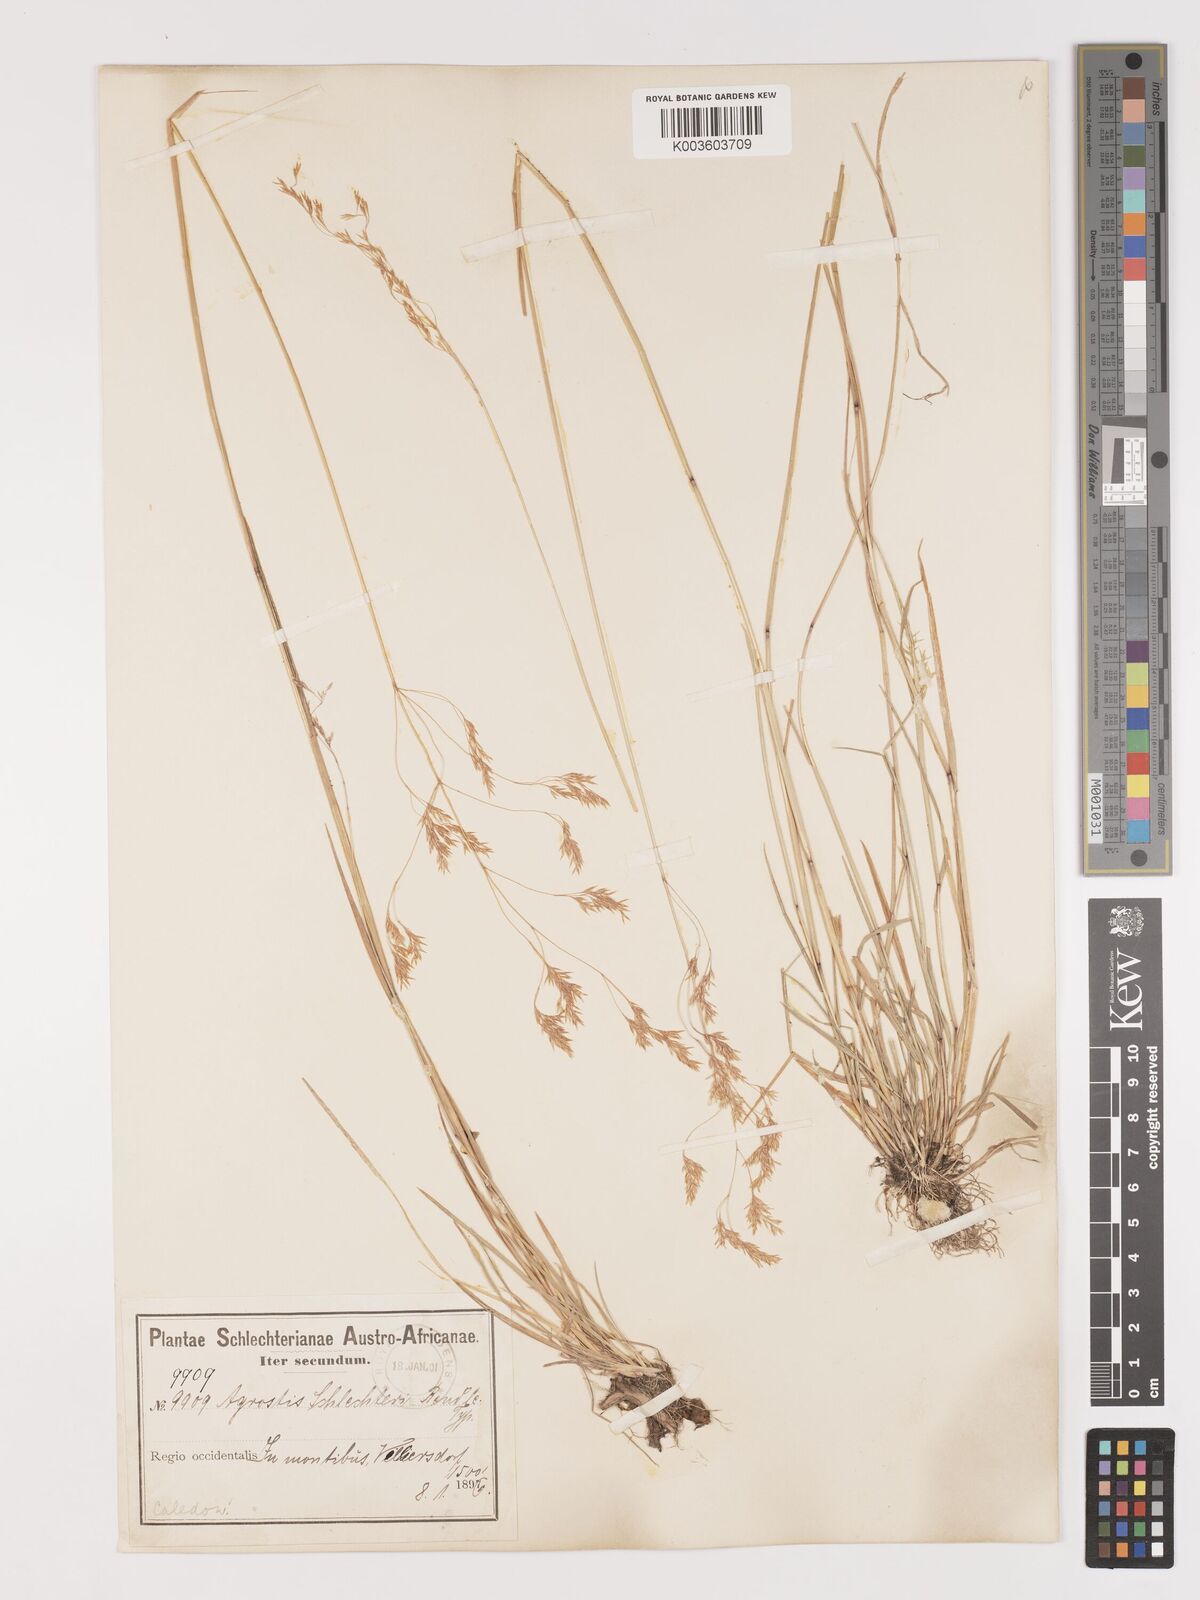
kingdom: Plantae
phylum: Tracheophyta
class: Liliopsida
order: Poales
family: Poaceae
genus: Lachnagrostis
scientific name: Lachnagrostis schlechteri
